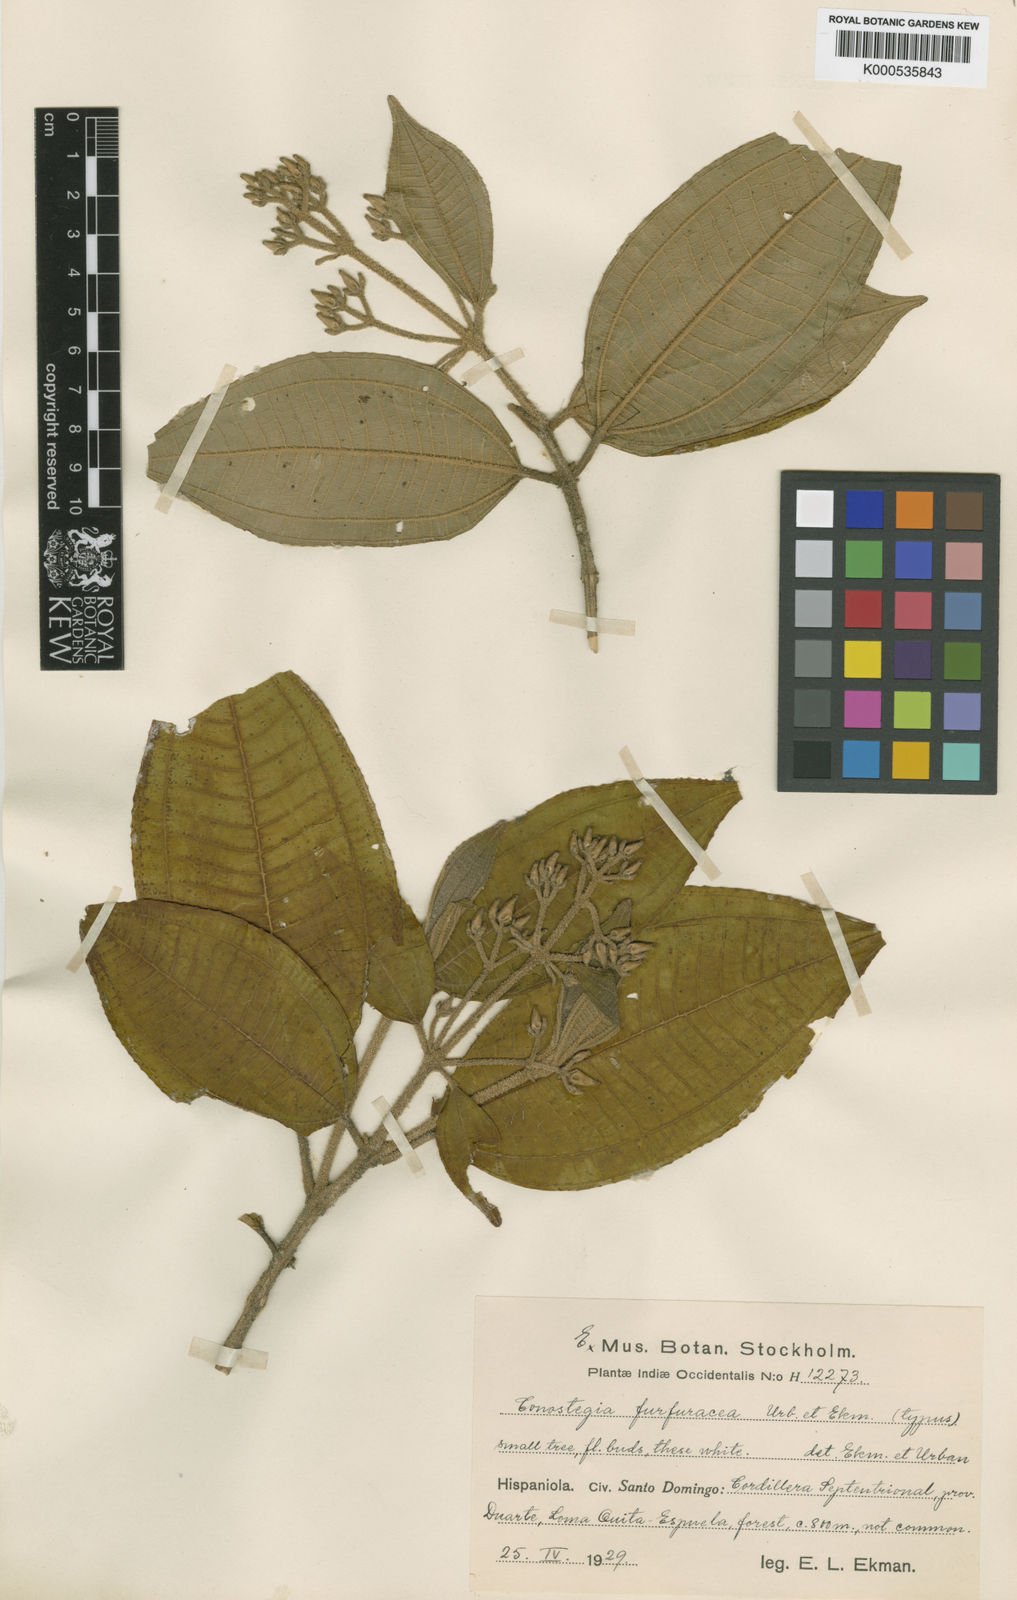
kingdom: Plantae
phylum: Tracheophyta
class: Magnoliopsida
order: Myrtales
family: Melastomataceae
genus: Miconia
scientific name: Miconia lomensis
